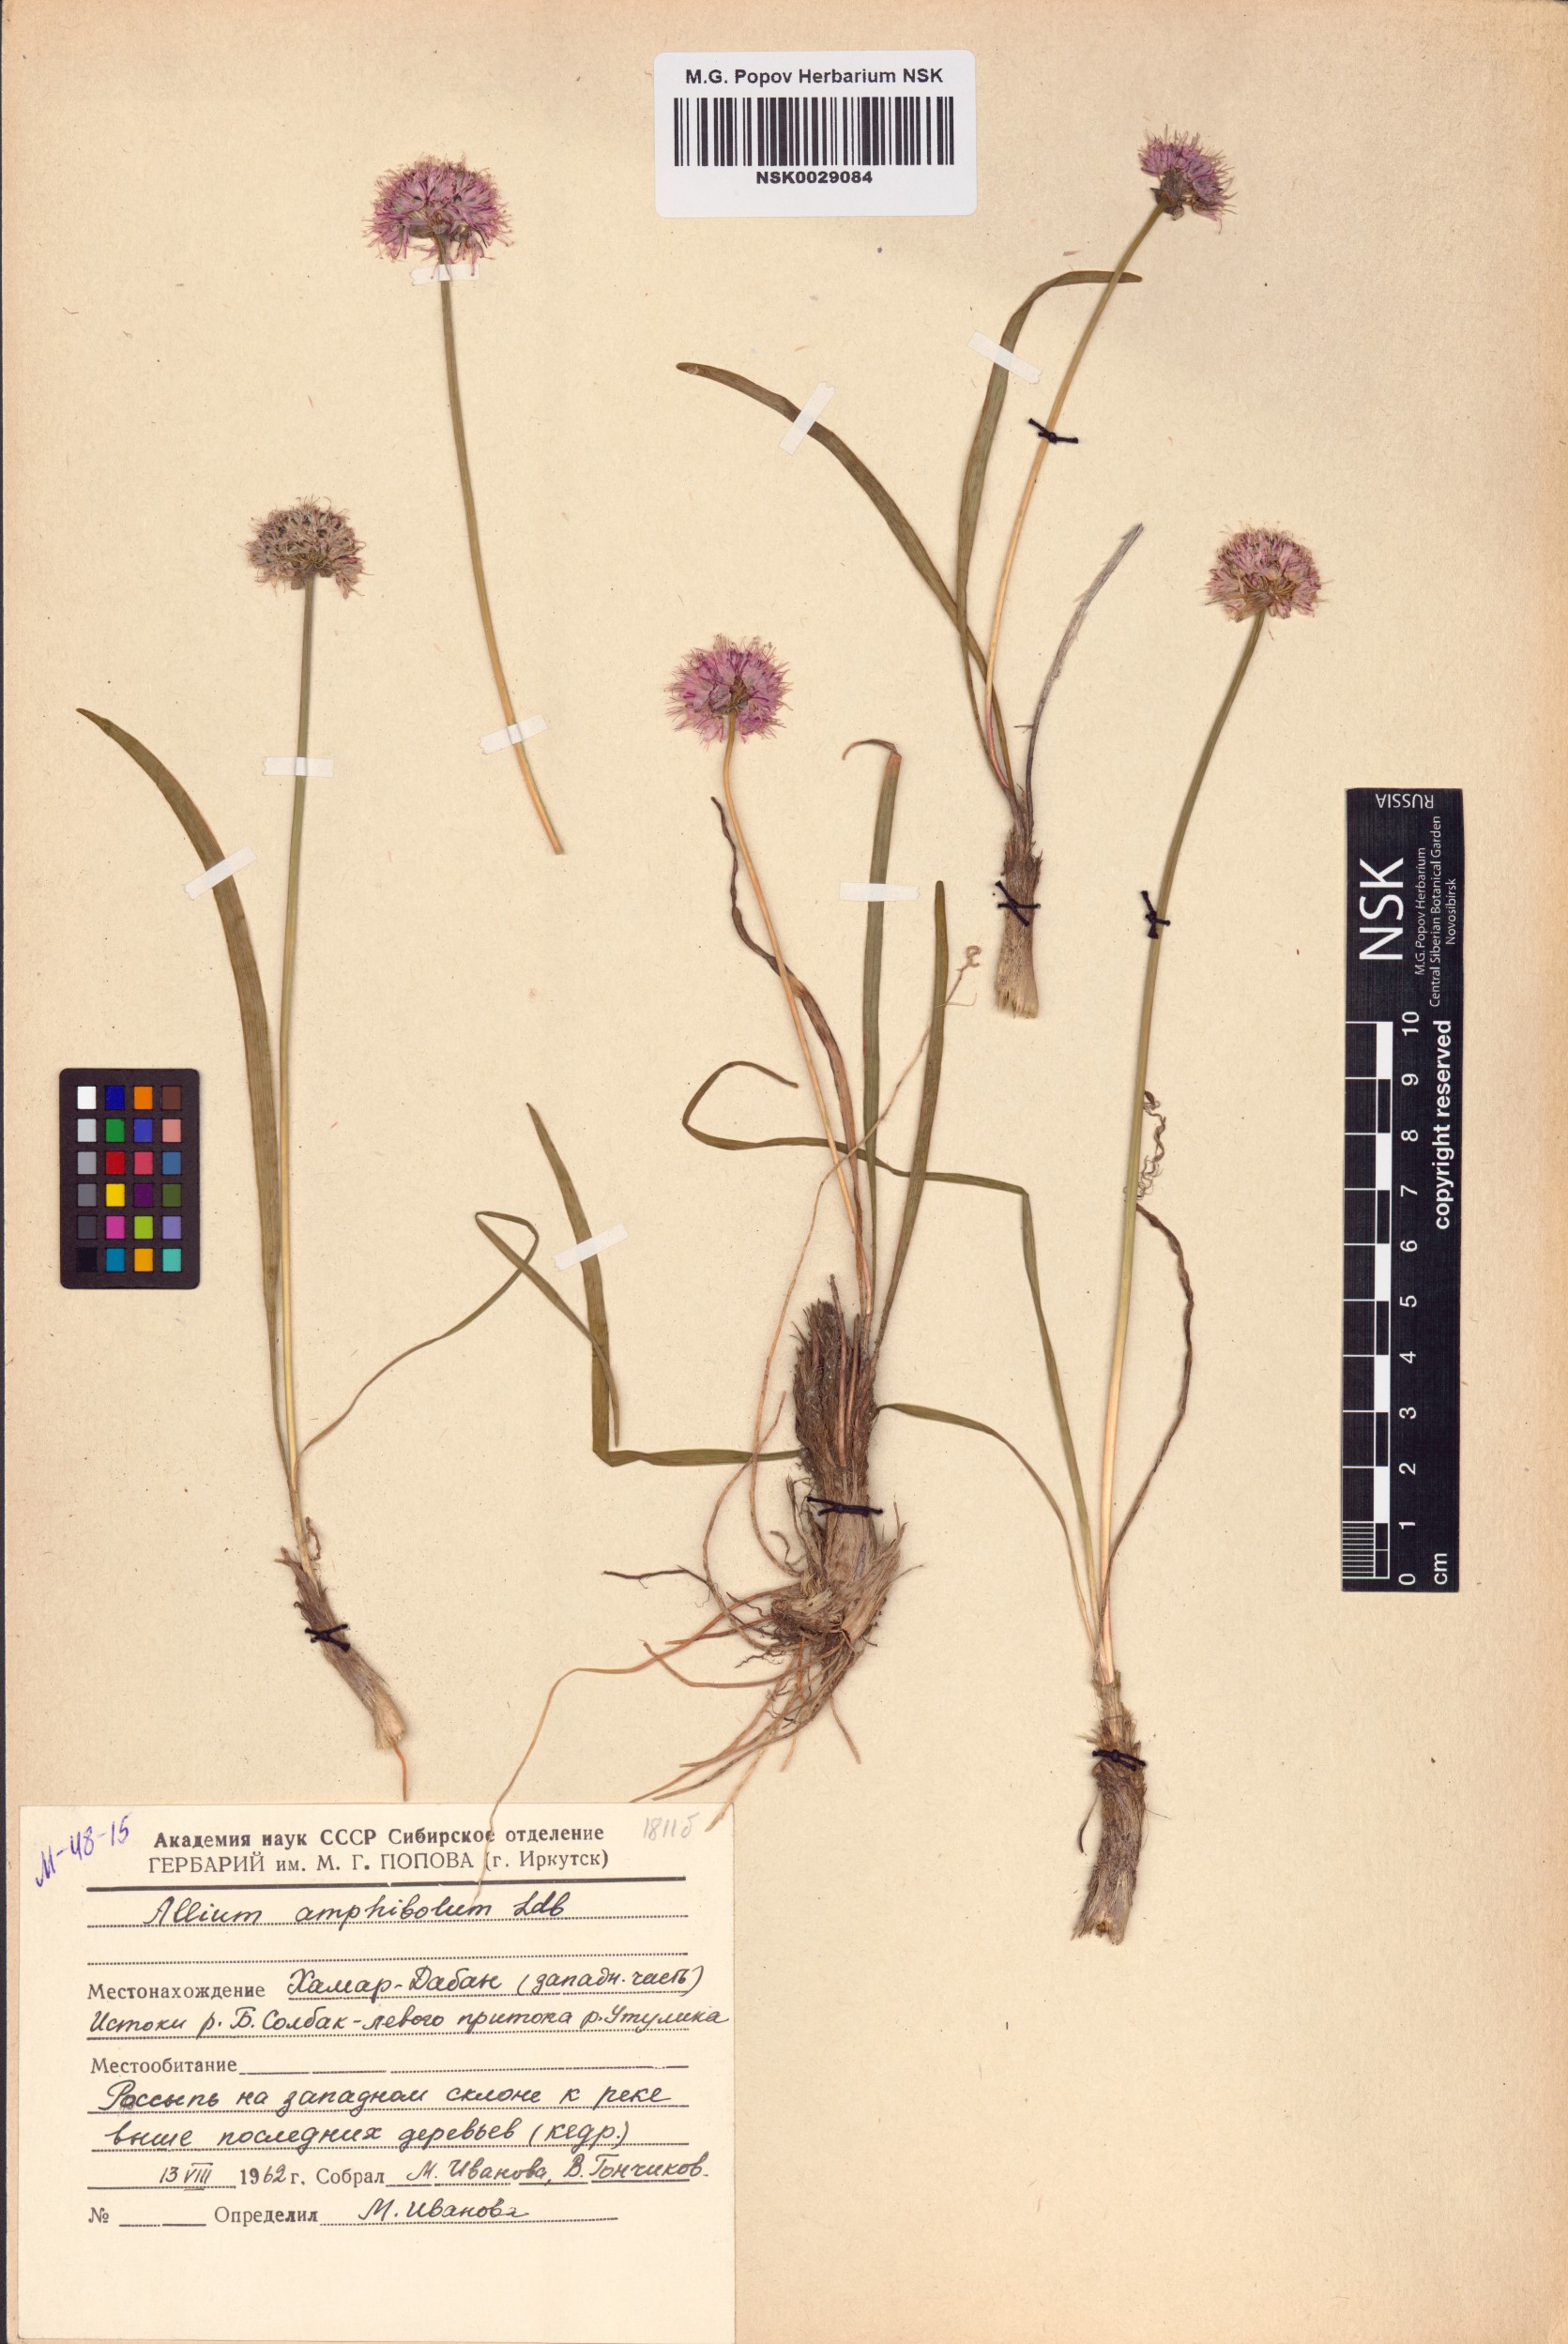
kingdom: Plantae
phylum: Tracheophyta
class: Liliopsida
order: Asparagales
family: Amaryllidaceae
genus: Allium
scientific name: Allium amphibolum
